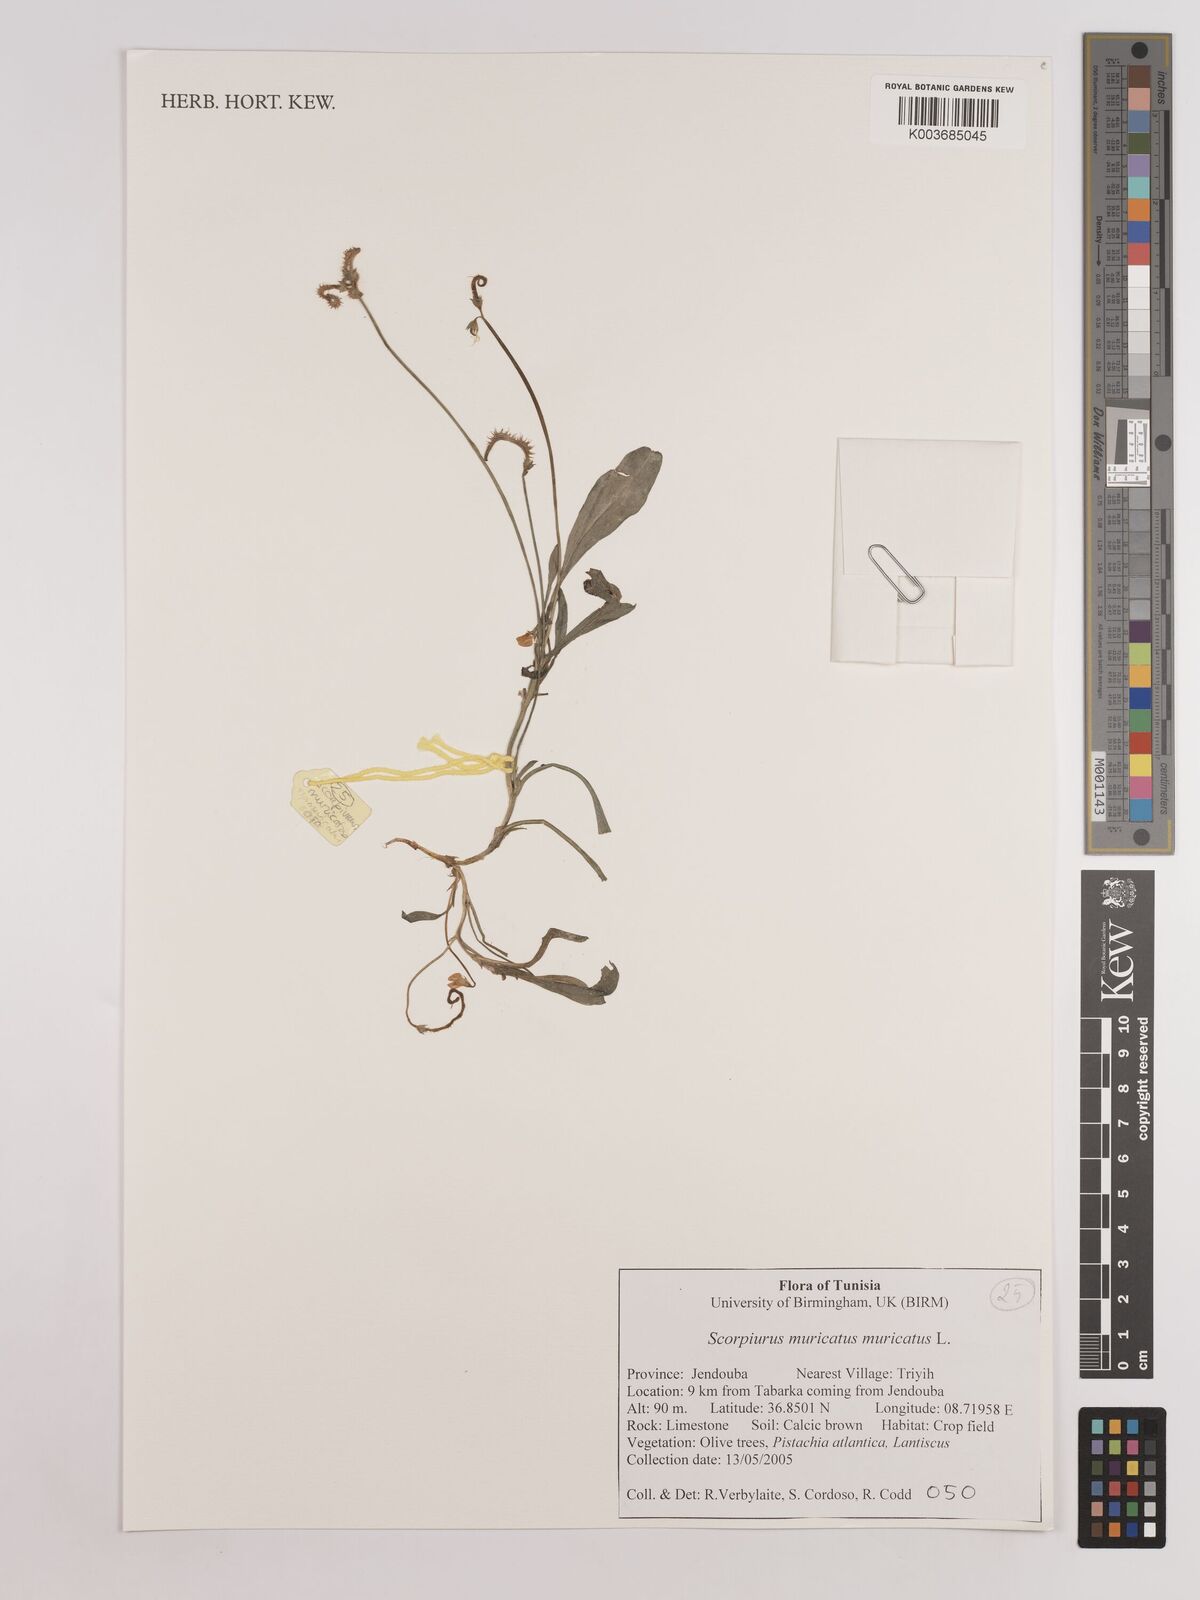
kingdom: Plantae
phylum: Tracheophyta
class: Magnoliopsida
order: Fabales
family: Fabaceae
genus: Scorpiurus
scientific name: Scorpiurus muricatus
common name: Caterpillar-plant
